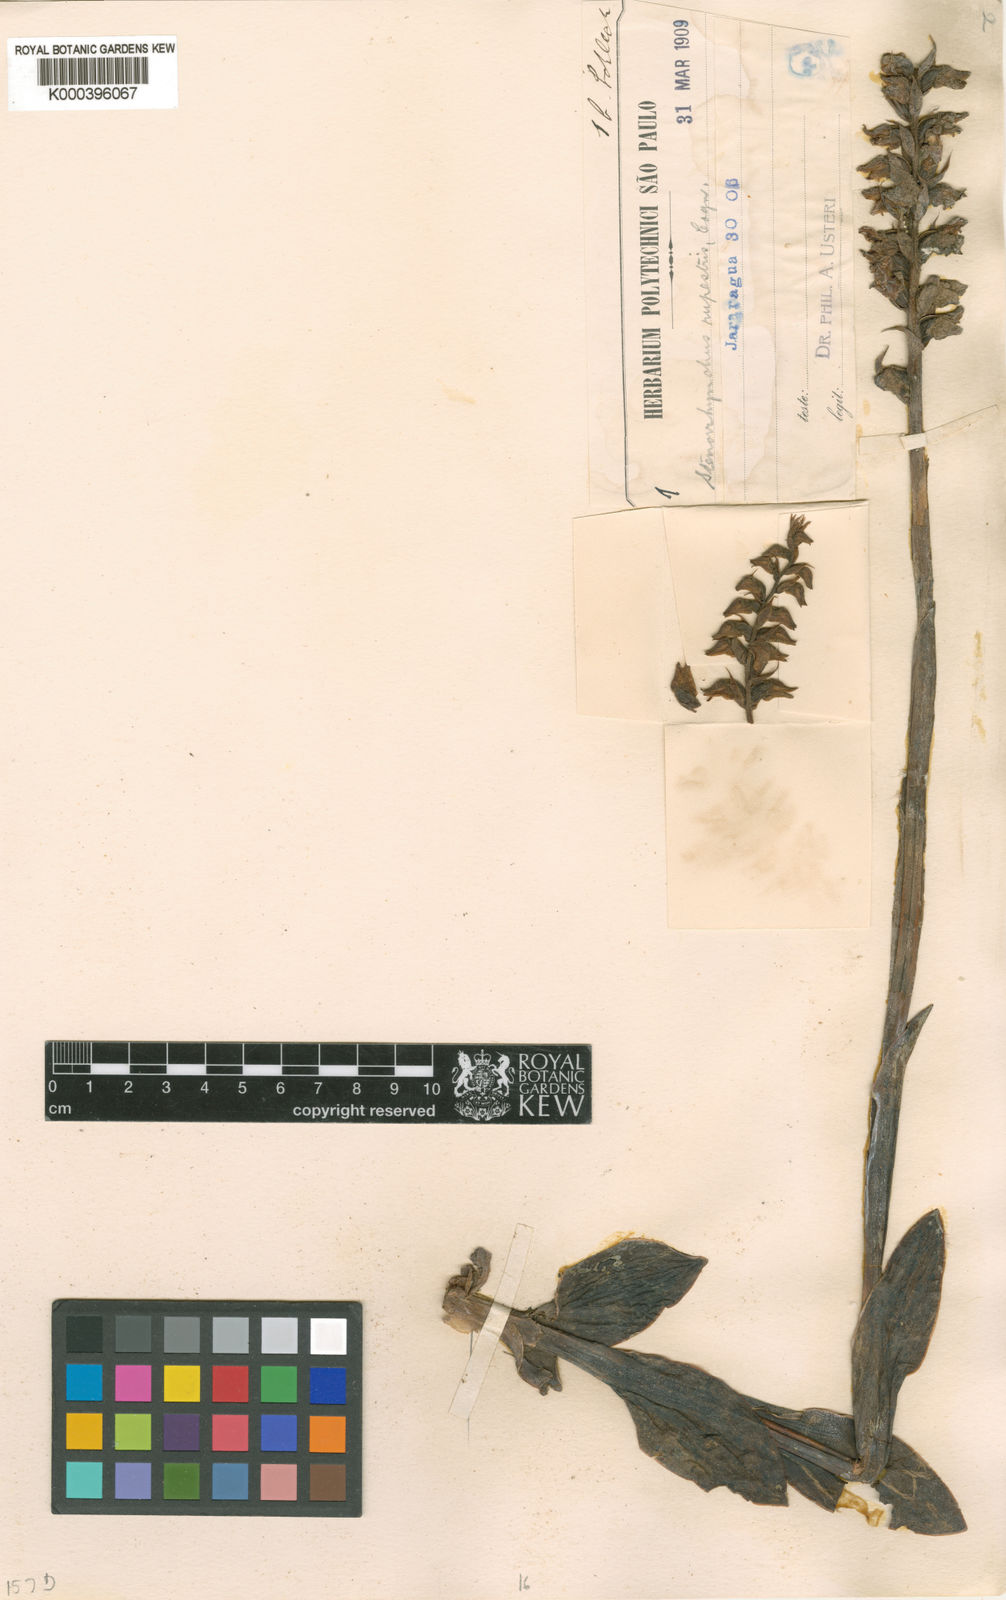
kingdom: Plantae
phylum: Tracheophyta
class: Liliopsida
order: Asparagales
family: Orchidaceae
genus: Skeptrostachys
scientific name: Skeptrostachys rupestris
